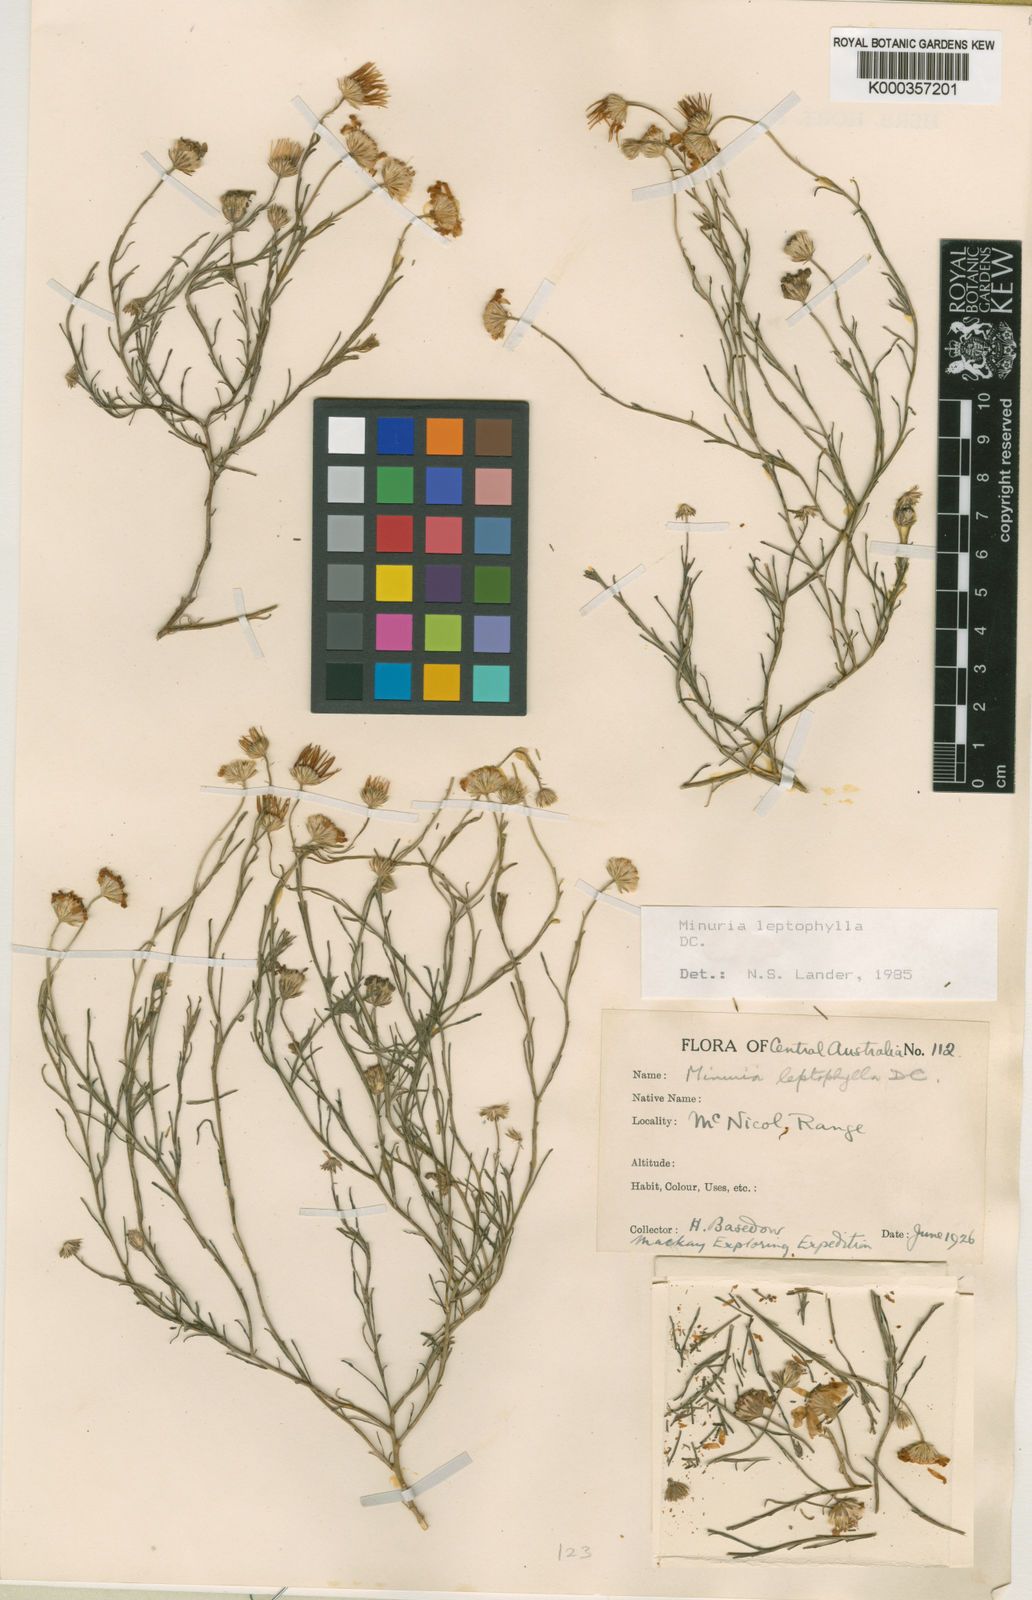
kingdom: Plantae
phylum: Tracheophyta
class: Magnoliopsida
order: Asterales
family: Asteraceae
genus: Minuria
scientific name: Minuria leptophylla
